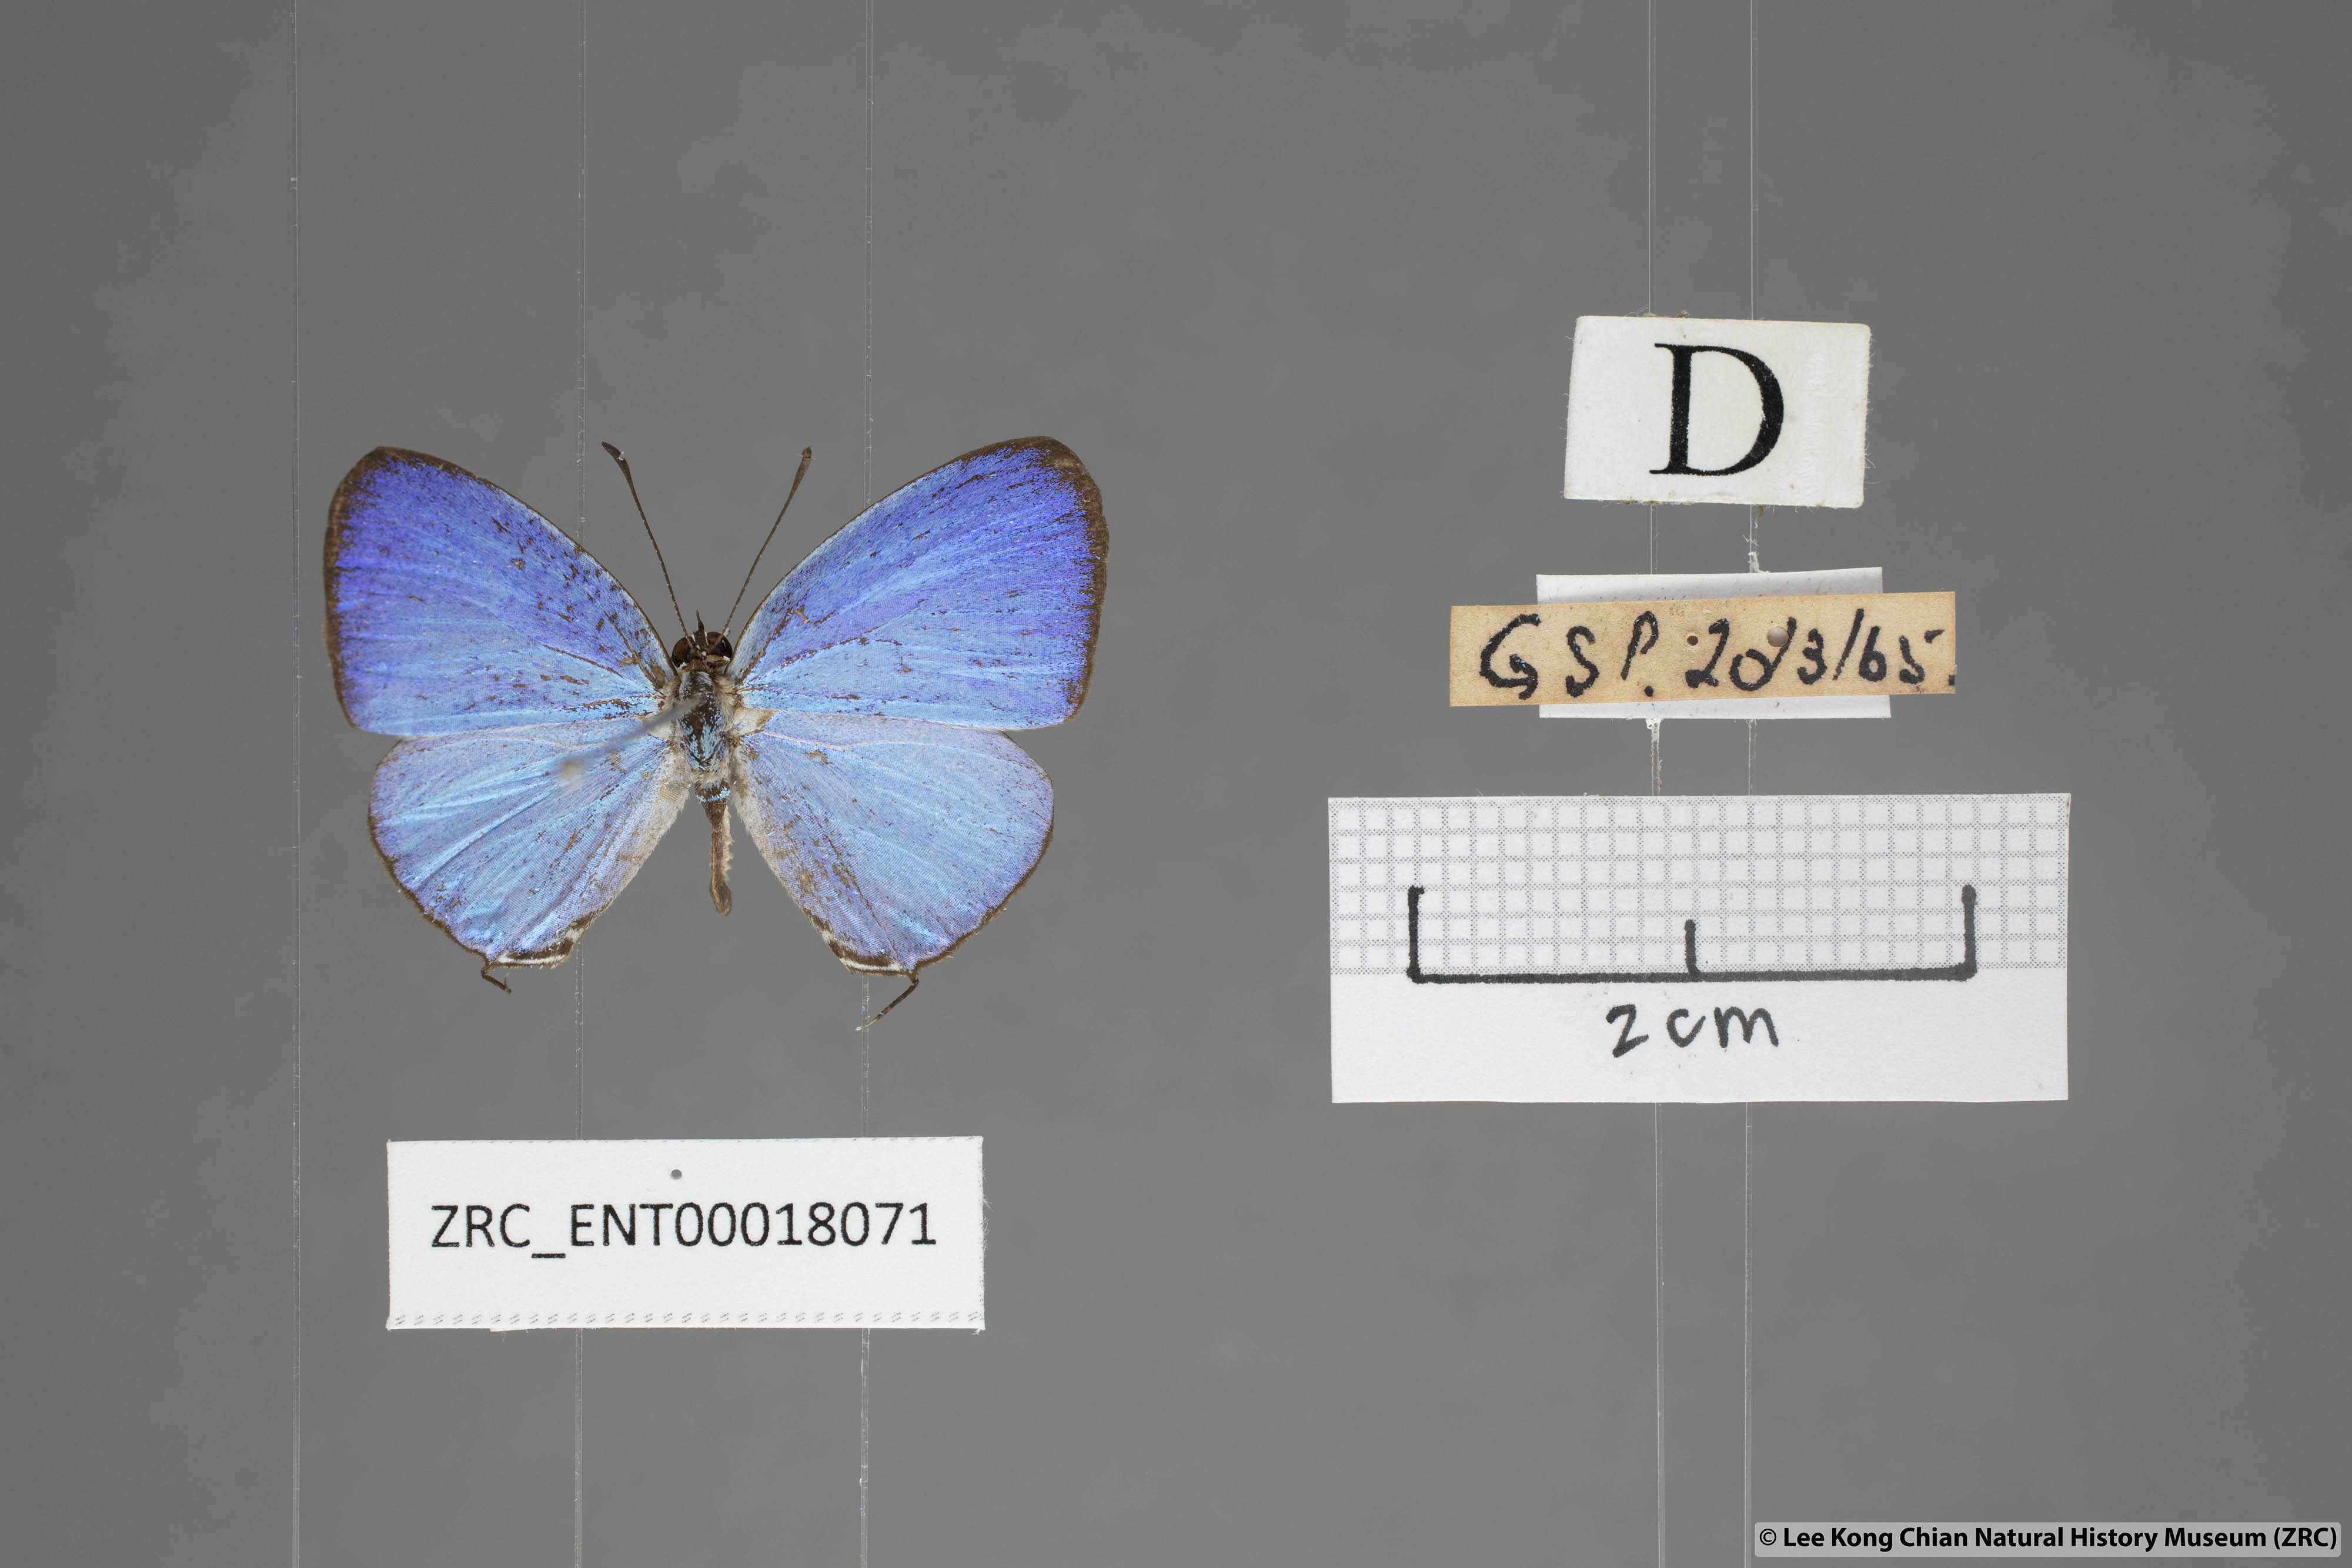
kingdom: Animalia
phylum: Arthropoda
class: Insecta
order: Lepidoptera
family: Lycaenidae
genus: Jamides
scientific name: Jamides caerulea
